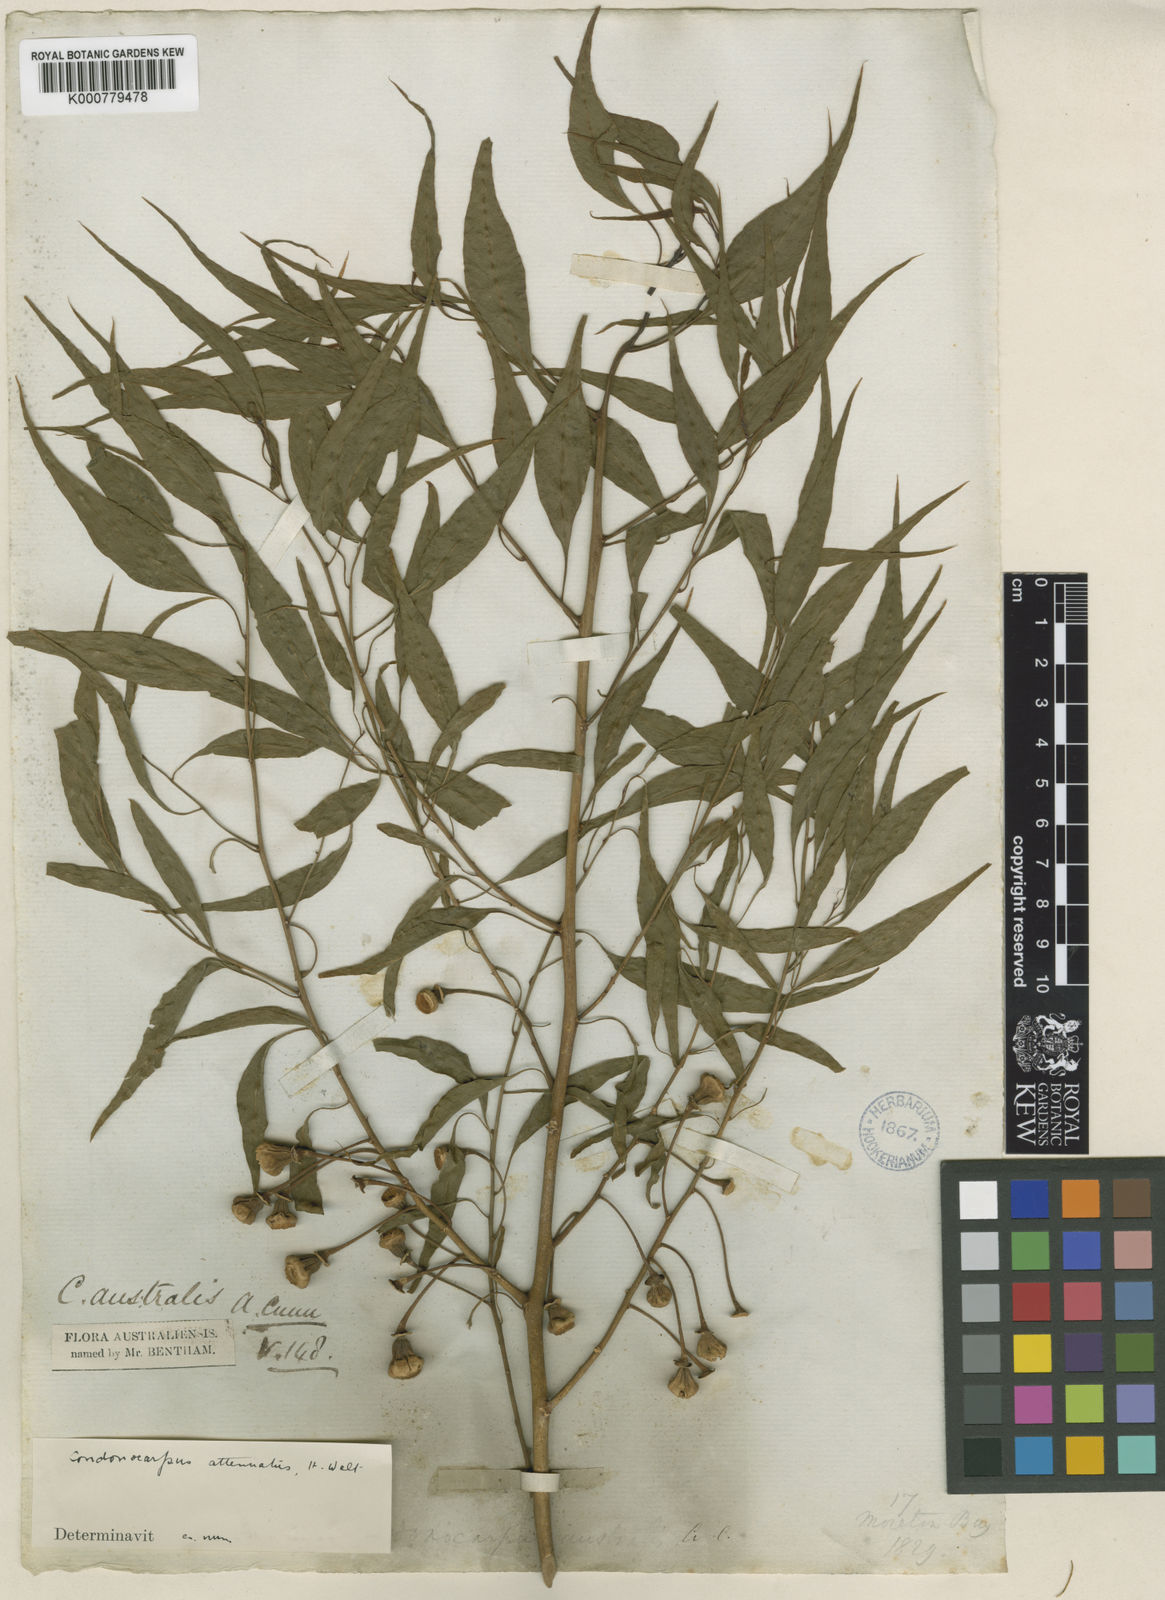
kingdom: Plantae
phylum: Tracheophyta
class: Magnoliopsida
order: Brassicales
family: Gyrostemonaceae
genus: Codonocarpus
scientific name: Codonocarpus attenuatus
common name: Bell-fruit-tree
